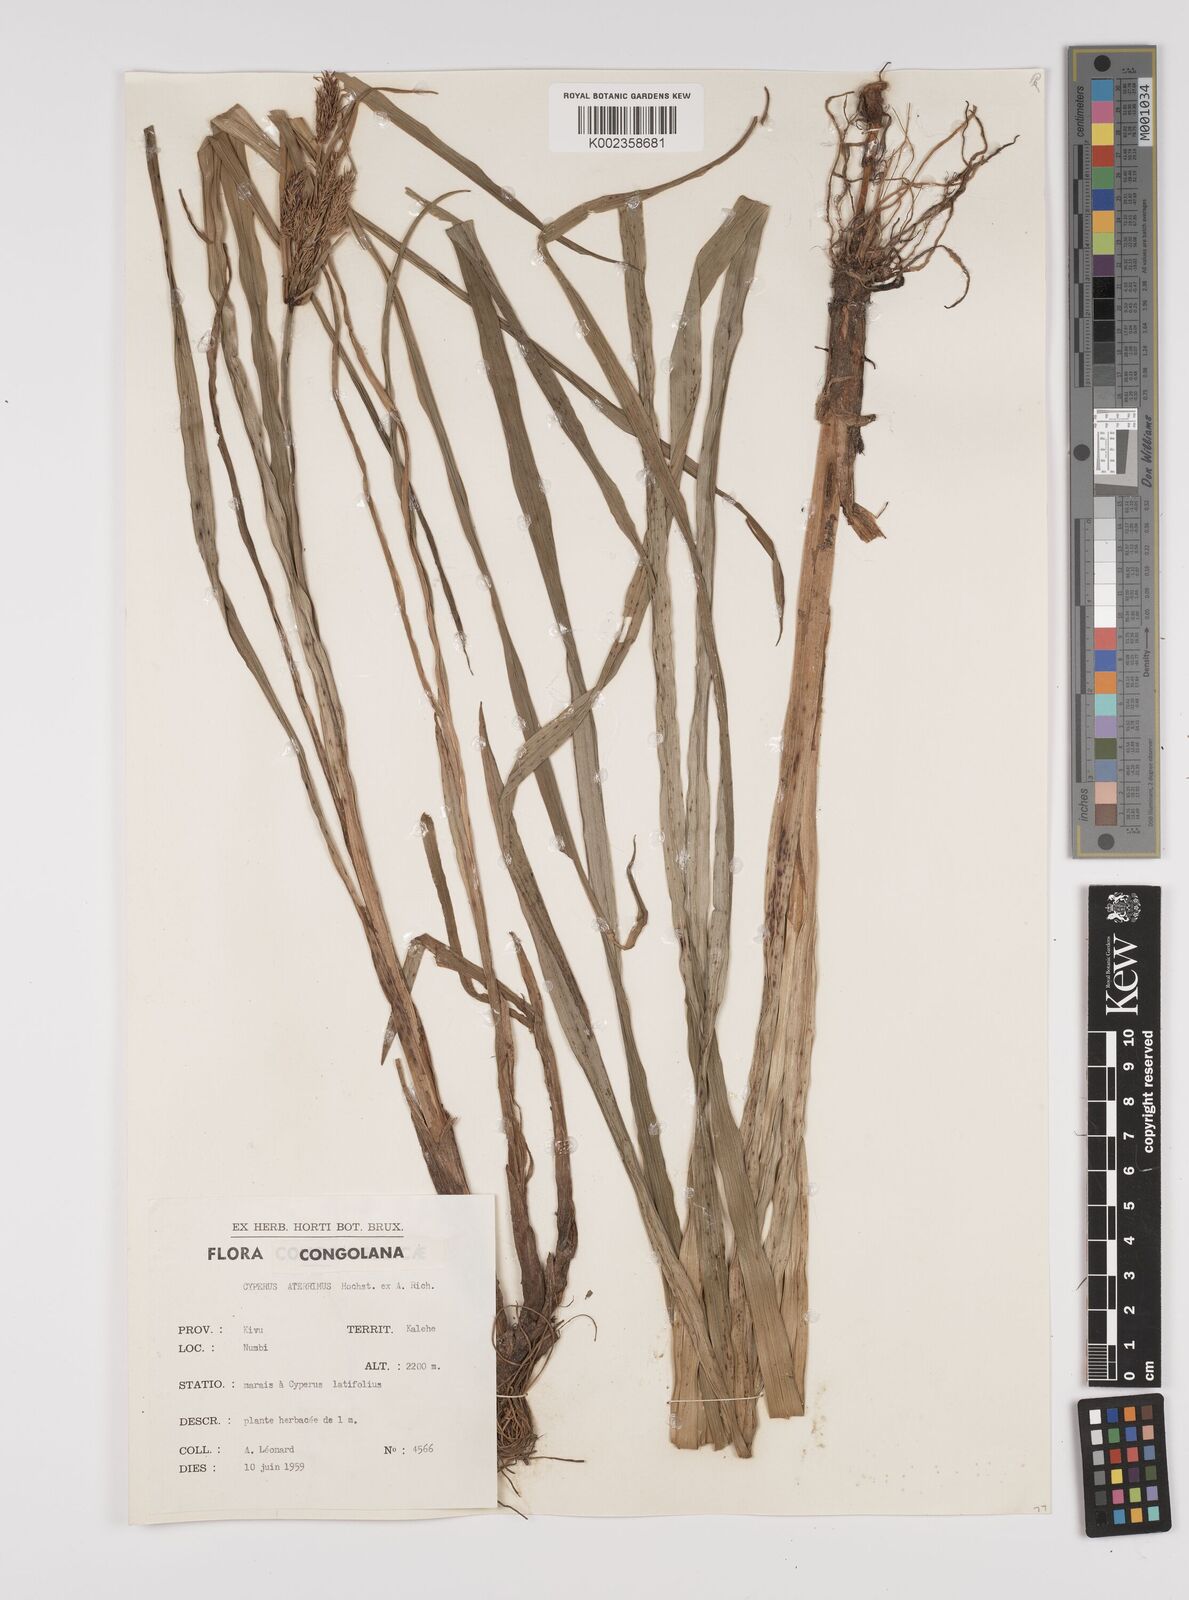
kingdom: Plantae
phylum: Tracheophyta
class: Liliopsida
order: Poales
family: Cyperaceae
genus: Cyperus
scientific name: Cyperus aterrimus
